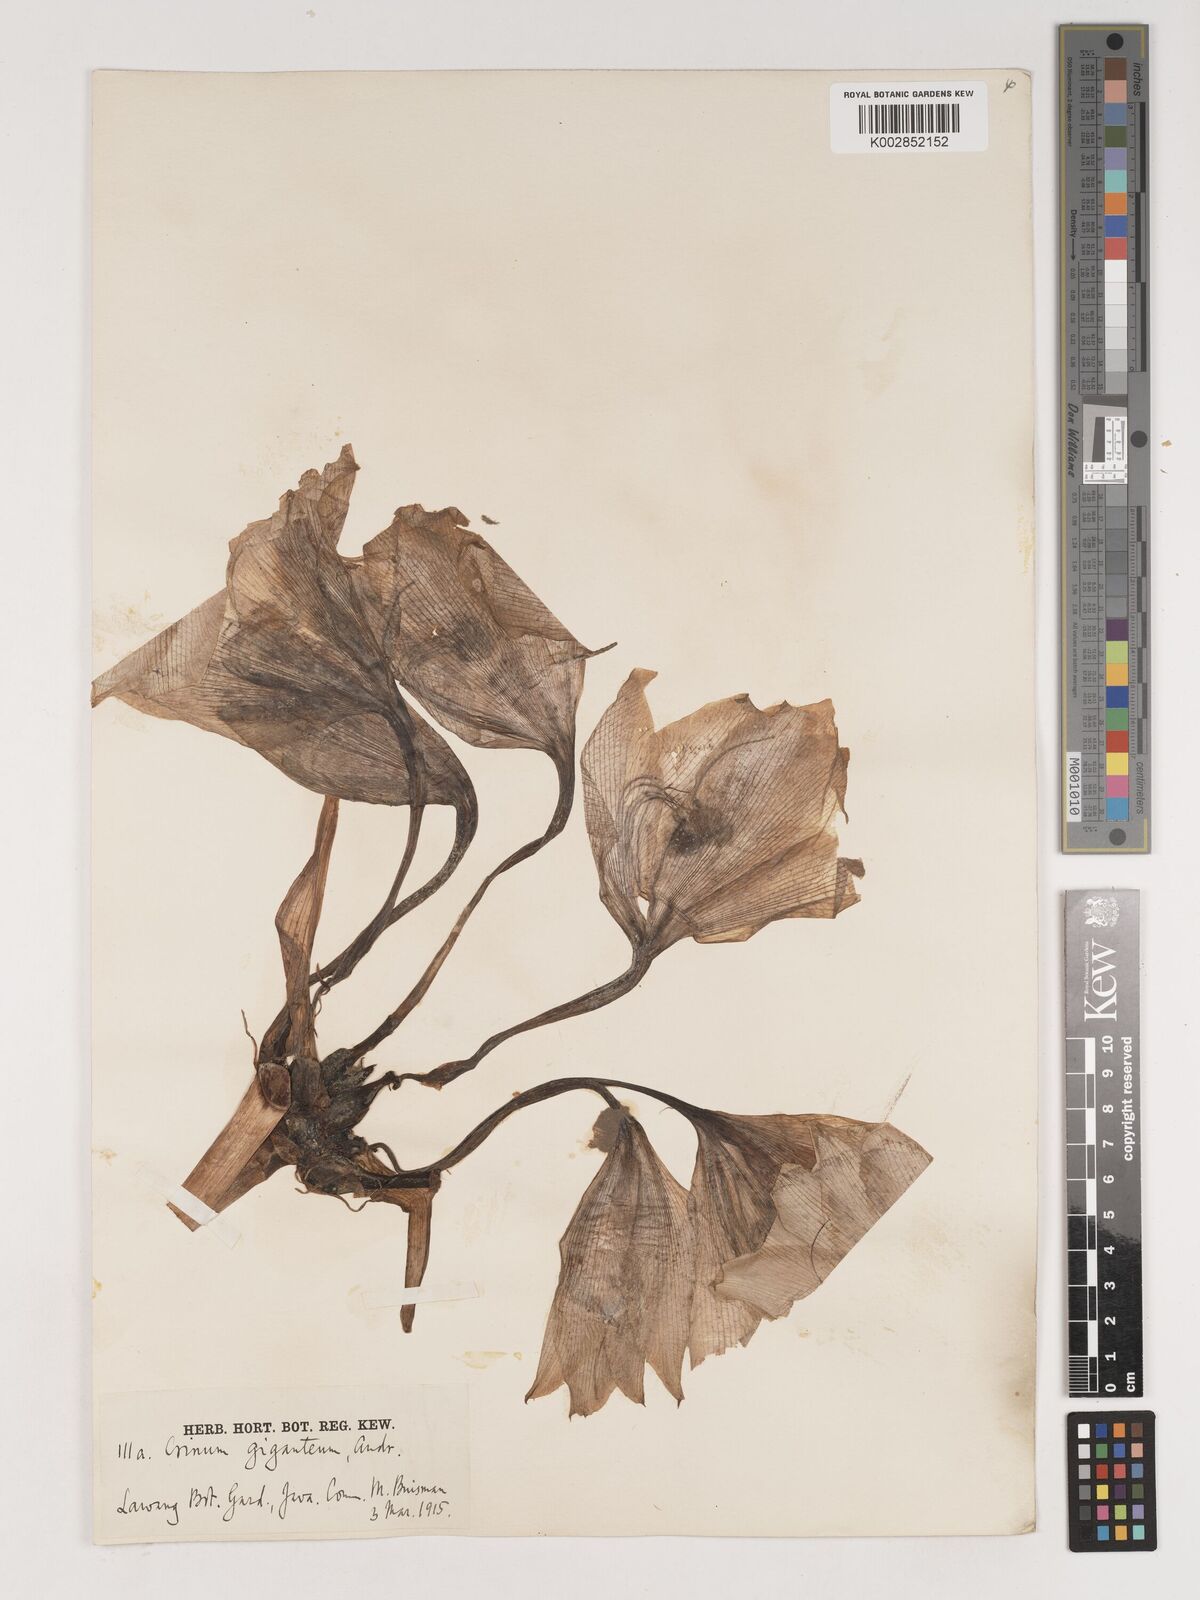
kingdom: Plantae
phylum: Tracheophyta
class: Liliopsida
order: Asparagales
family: Amaryllidaceae
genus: Crinum
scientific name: Crinum jagus
